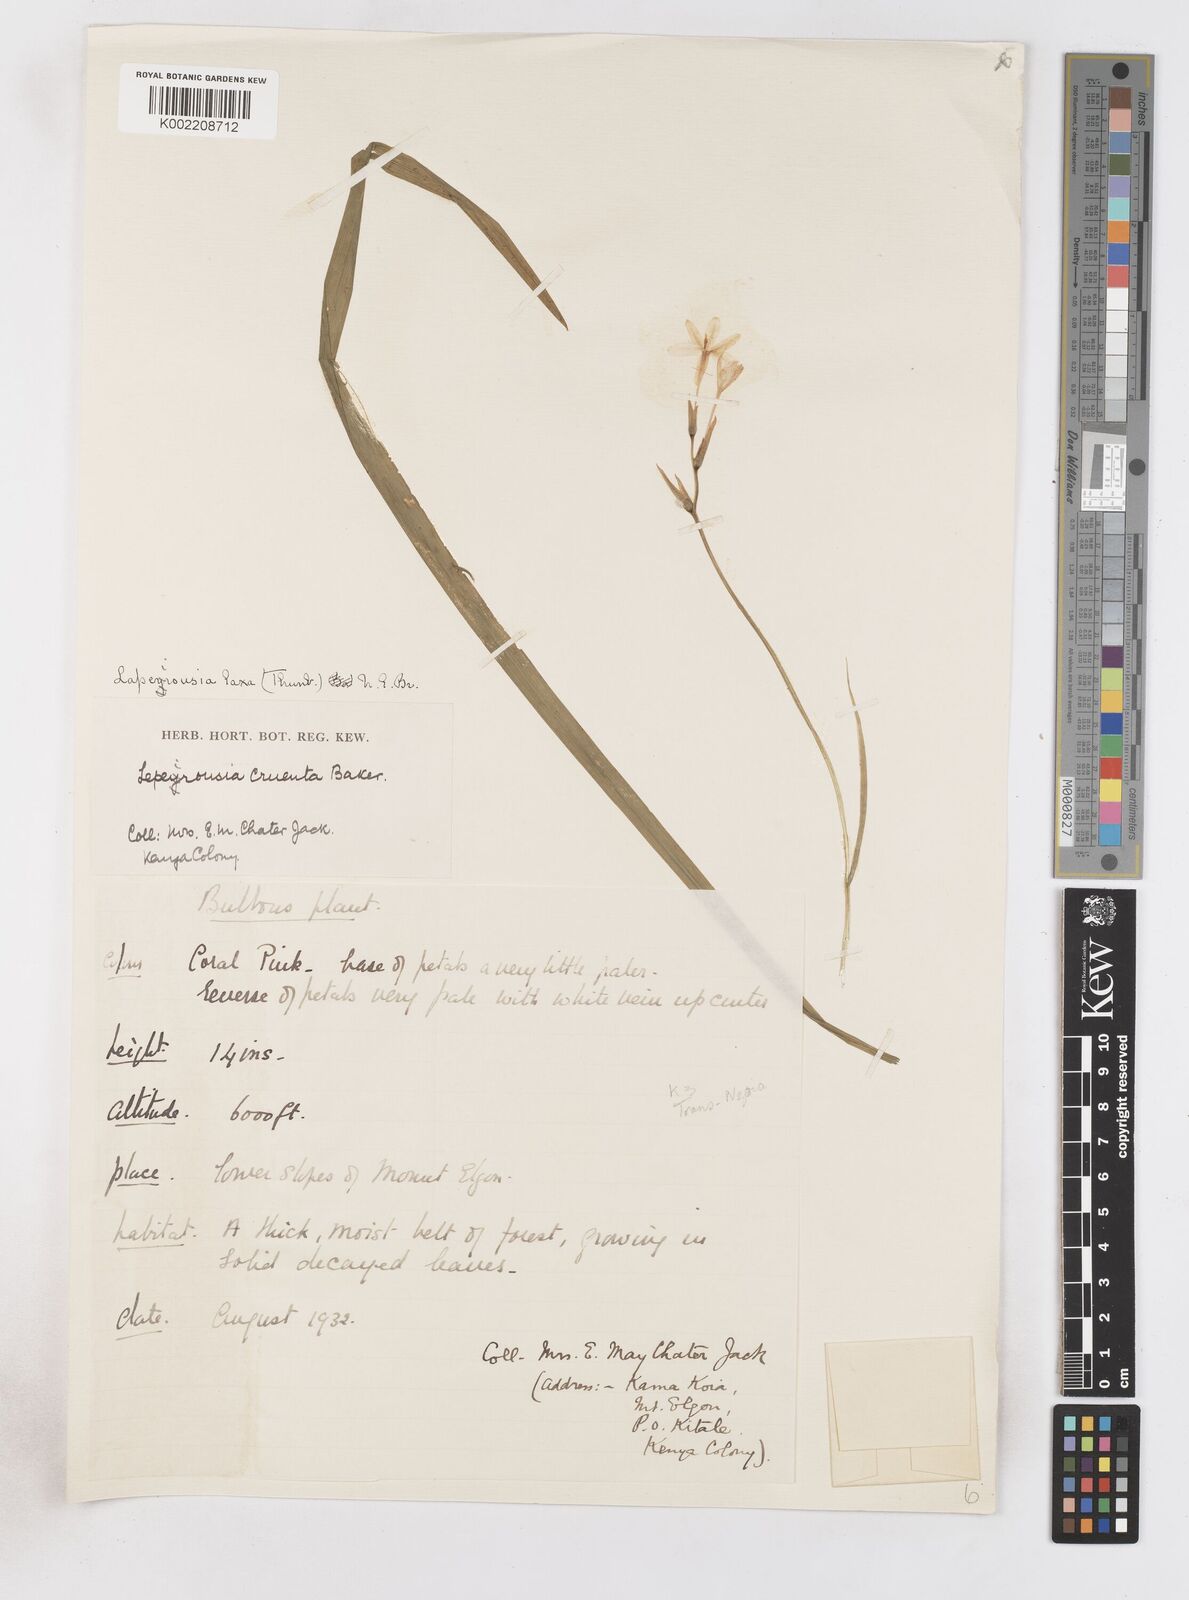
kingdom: Plantae
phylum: Tracheophyta
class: Liliopsida
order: Asparagales
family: Iridaceae
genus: Freesia
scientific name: Freesia laxa
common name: False freesia
